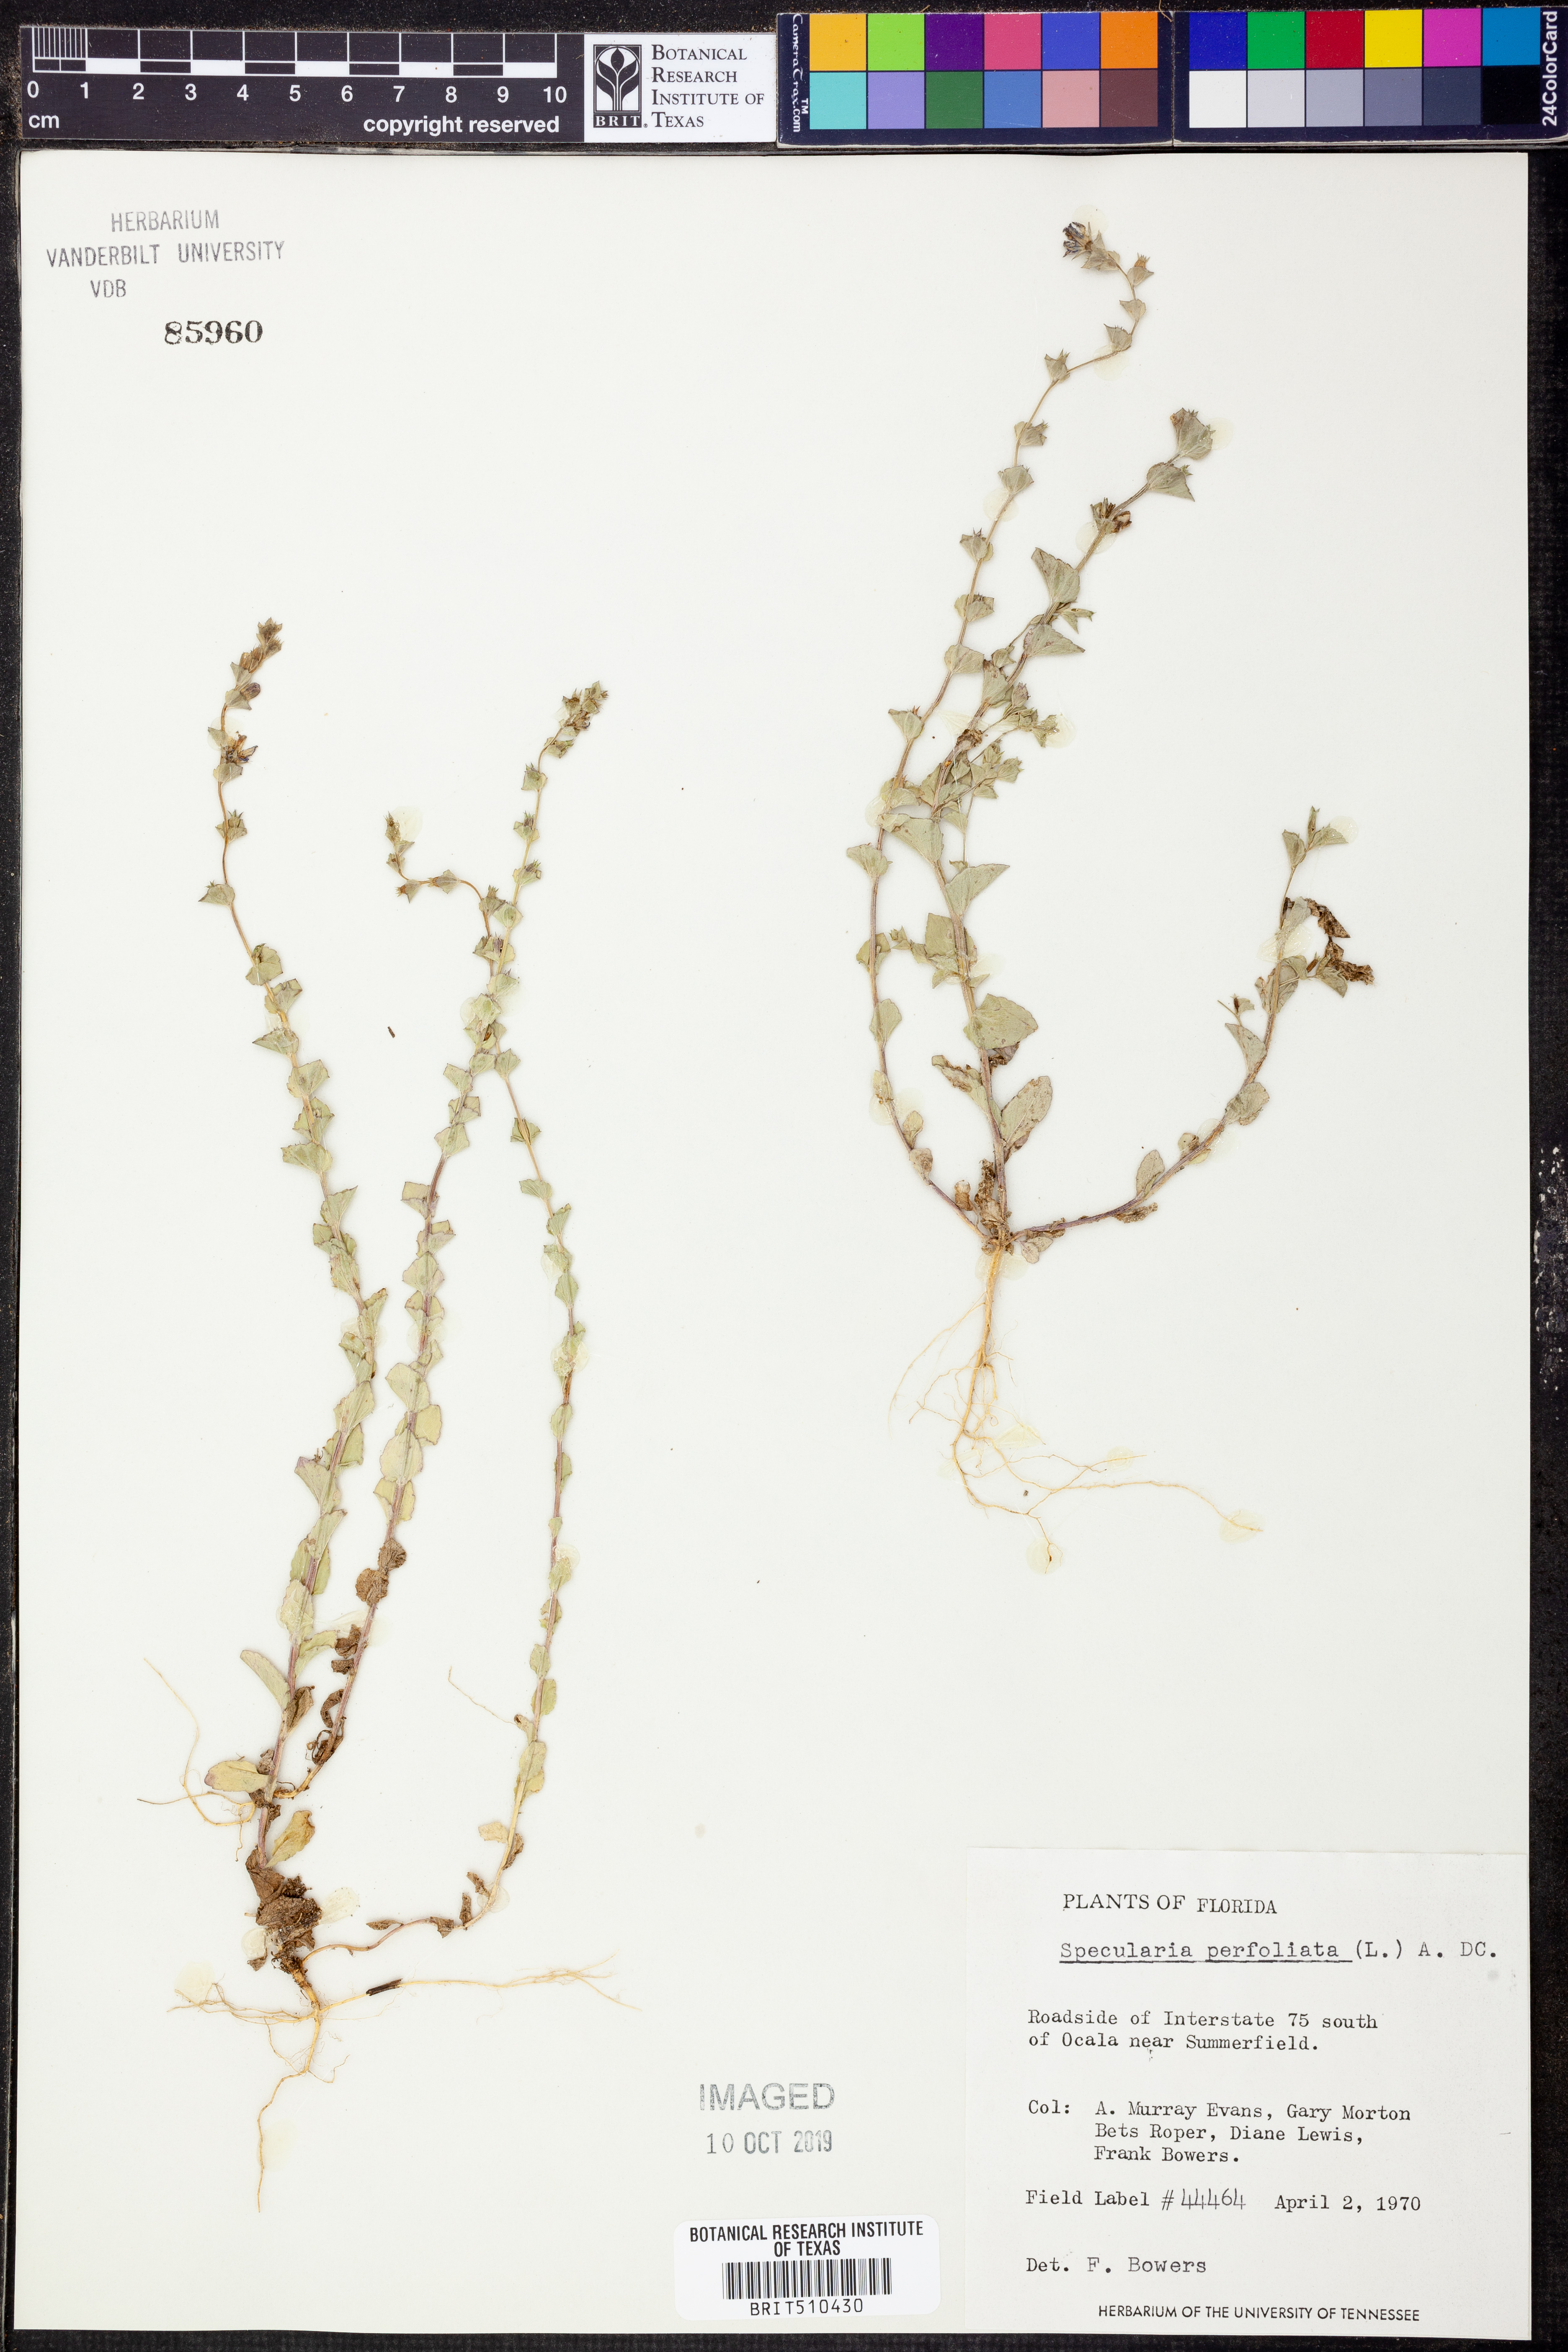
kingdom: Plantae
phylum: Tracheophyta
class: Magnoliopsida
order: Asterales
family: Campanulaceae
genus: Triodanis
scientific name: Triodanis perfoliata
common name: Clasping venus' looking-glass
